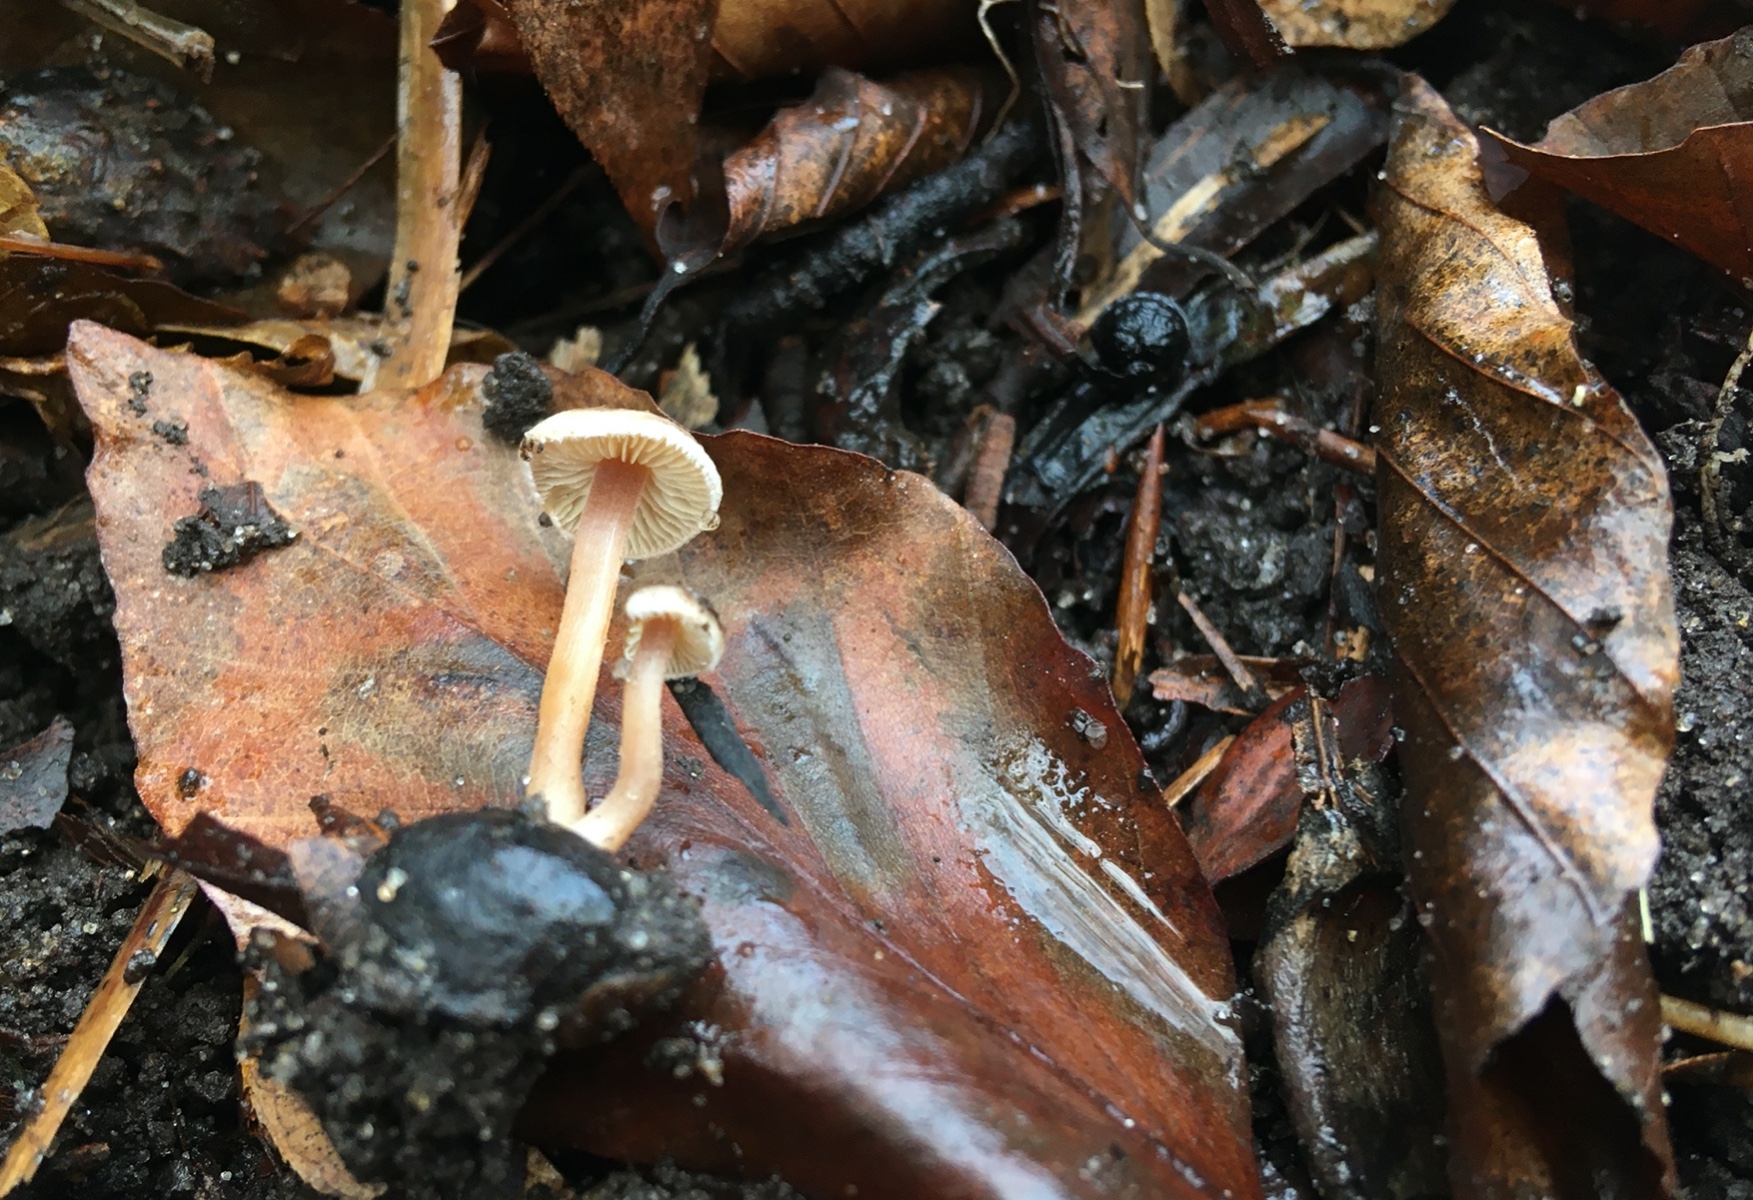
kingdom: Fungi
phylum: Basidiomycota
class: Agaricomycetes
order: Agaricales
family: Inocybaceae
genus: Inocybe
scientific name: Inocybe petiginosa
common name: liden trævlhat
